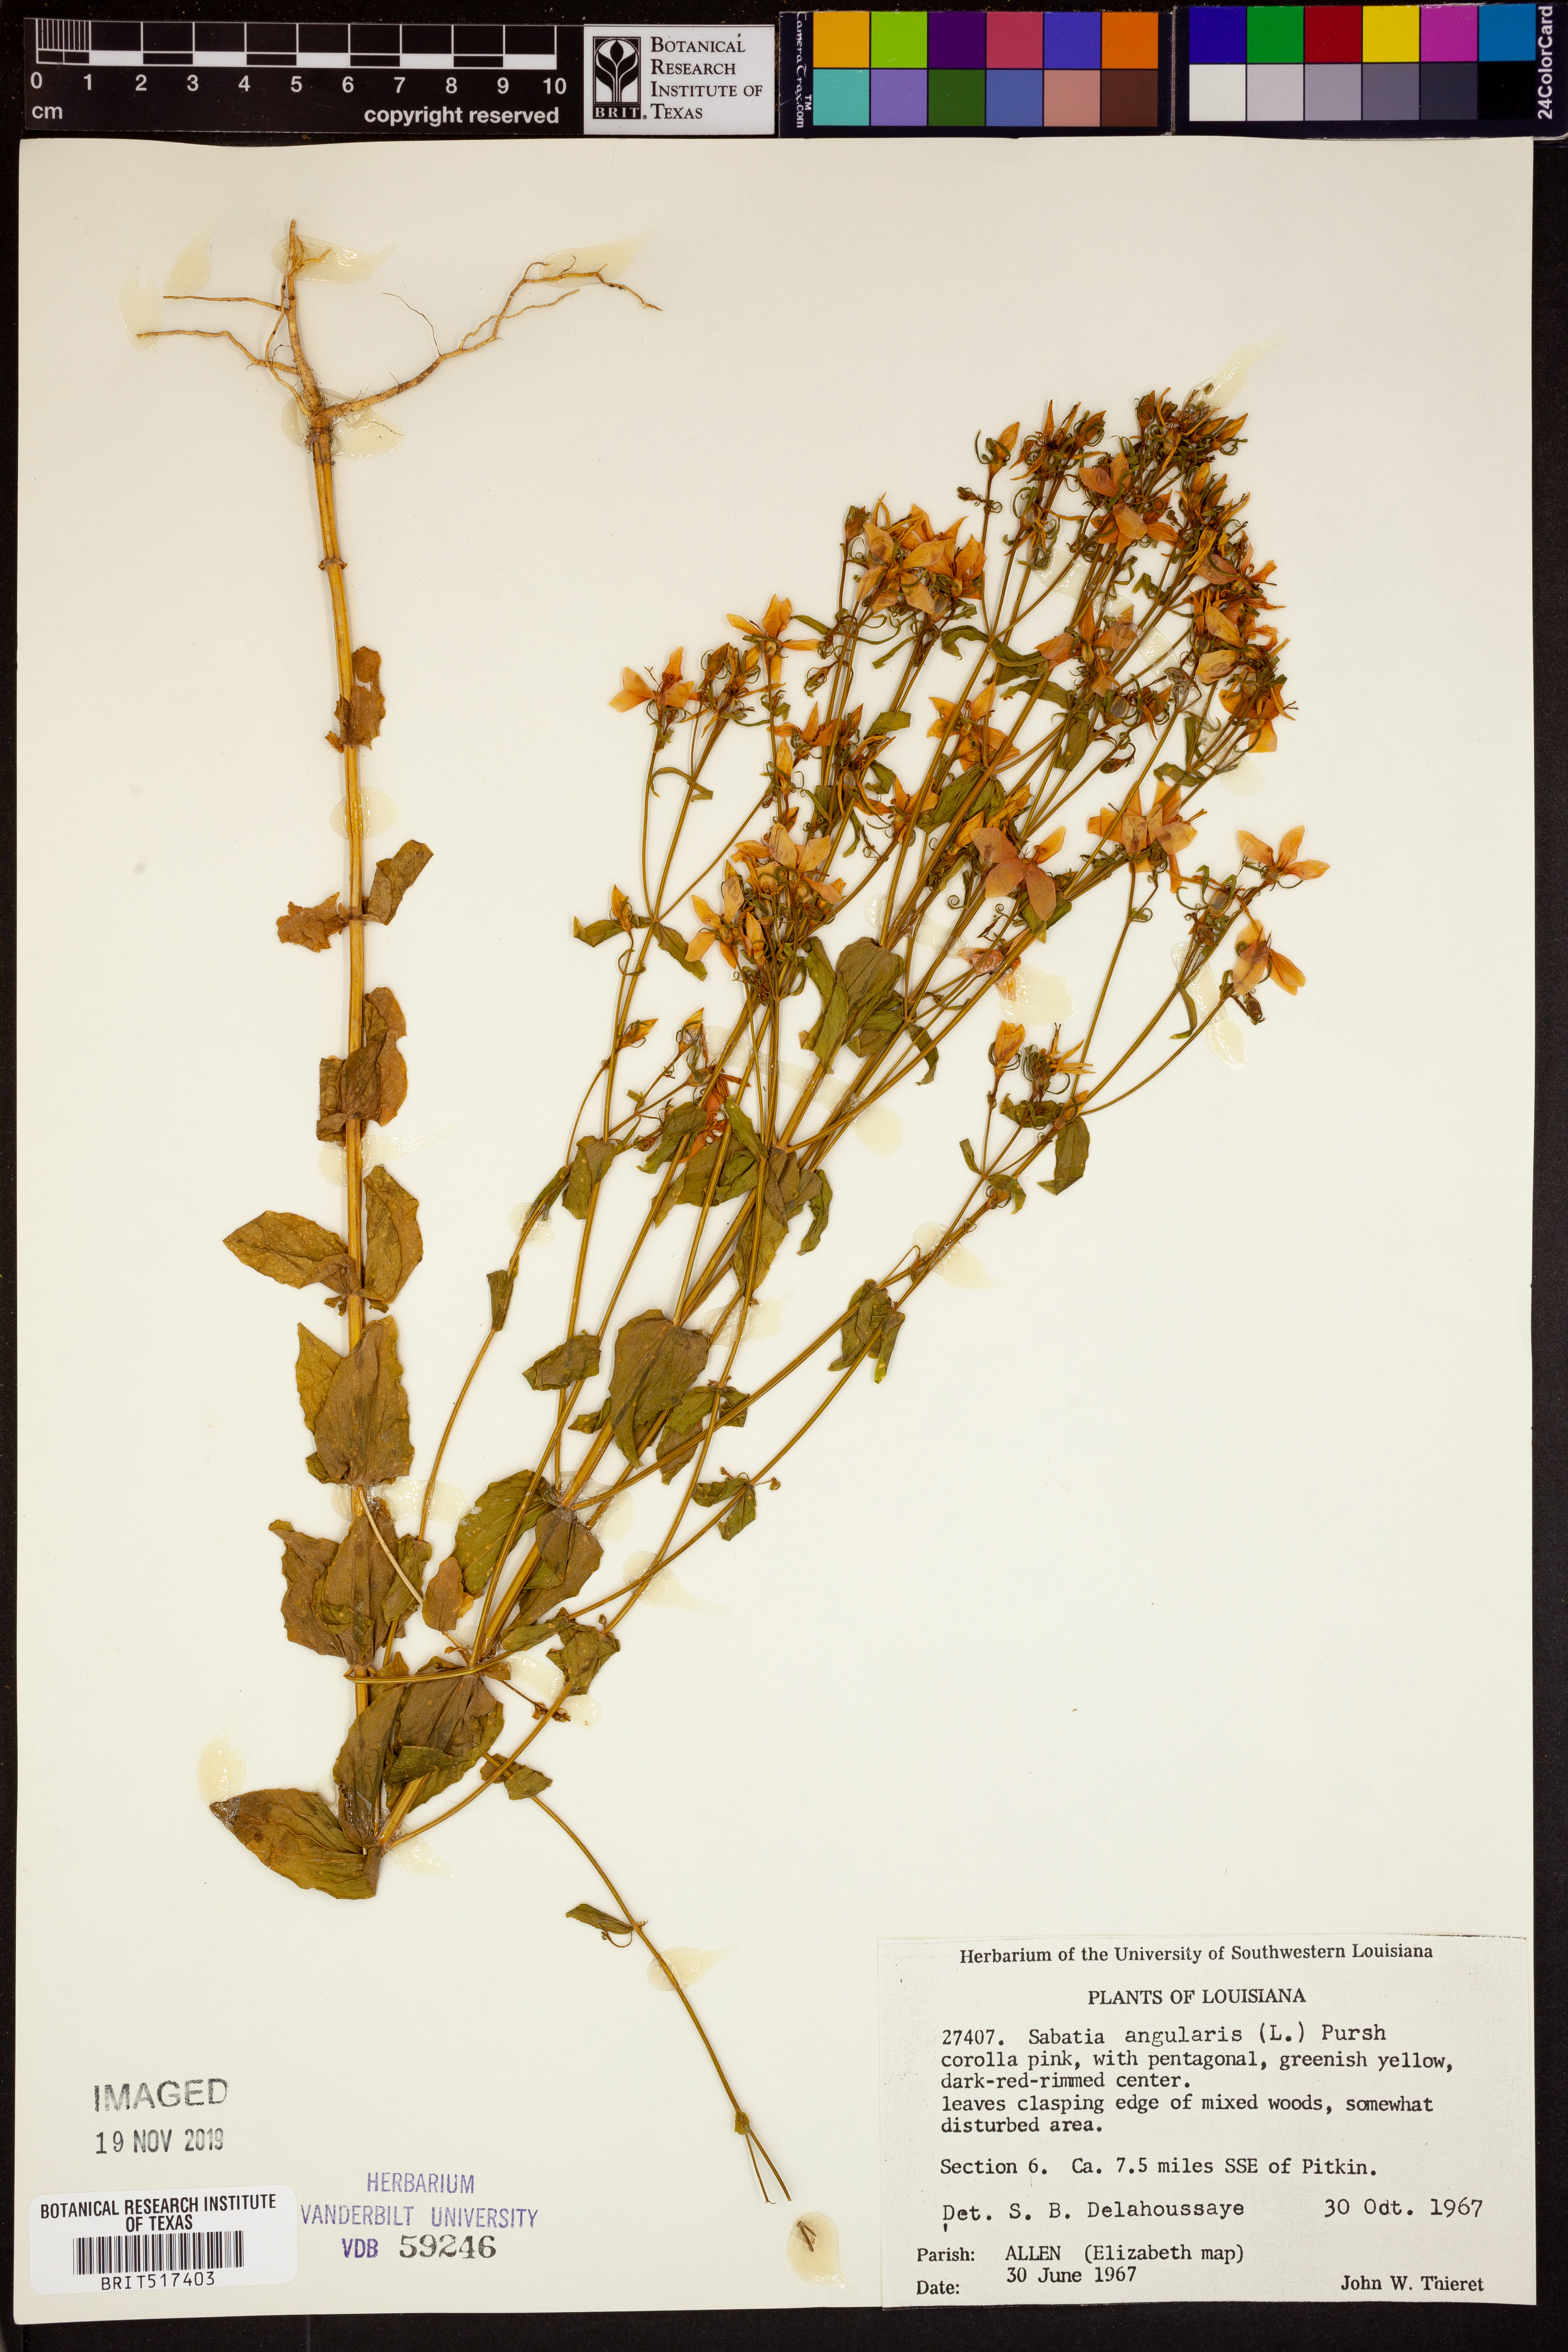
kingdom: Plantae
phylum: Tracheophyta
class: Magnoliopsida
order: Gentianales
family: Gentianaceae
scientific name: Gentianaceae
